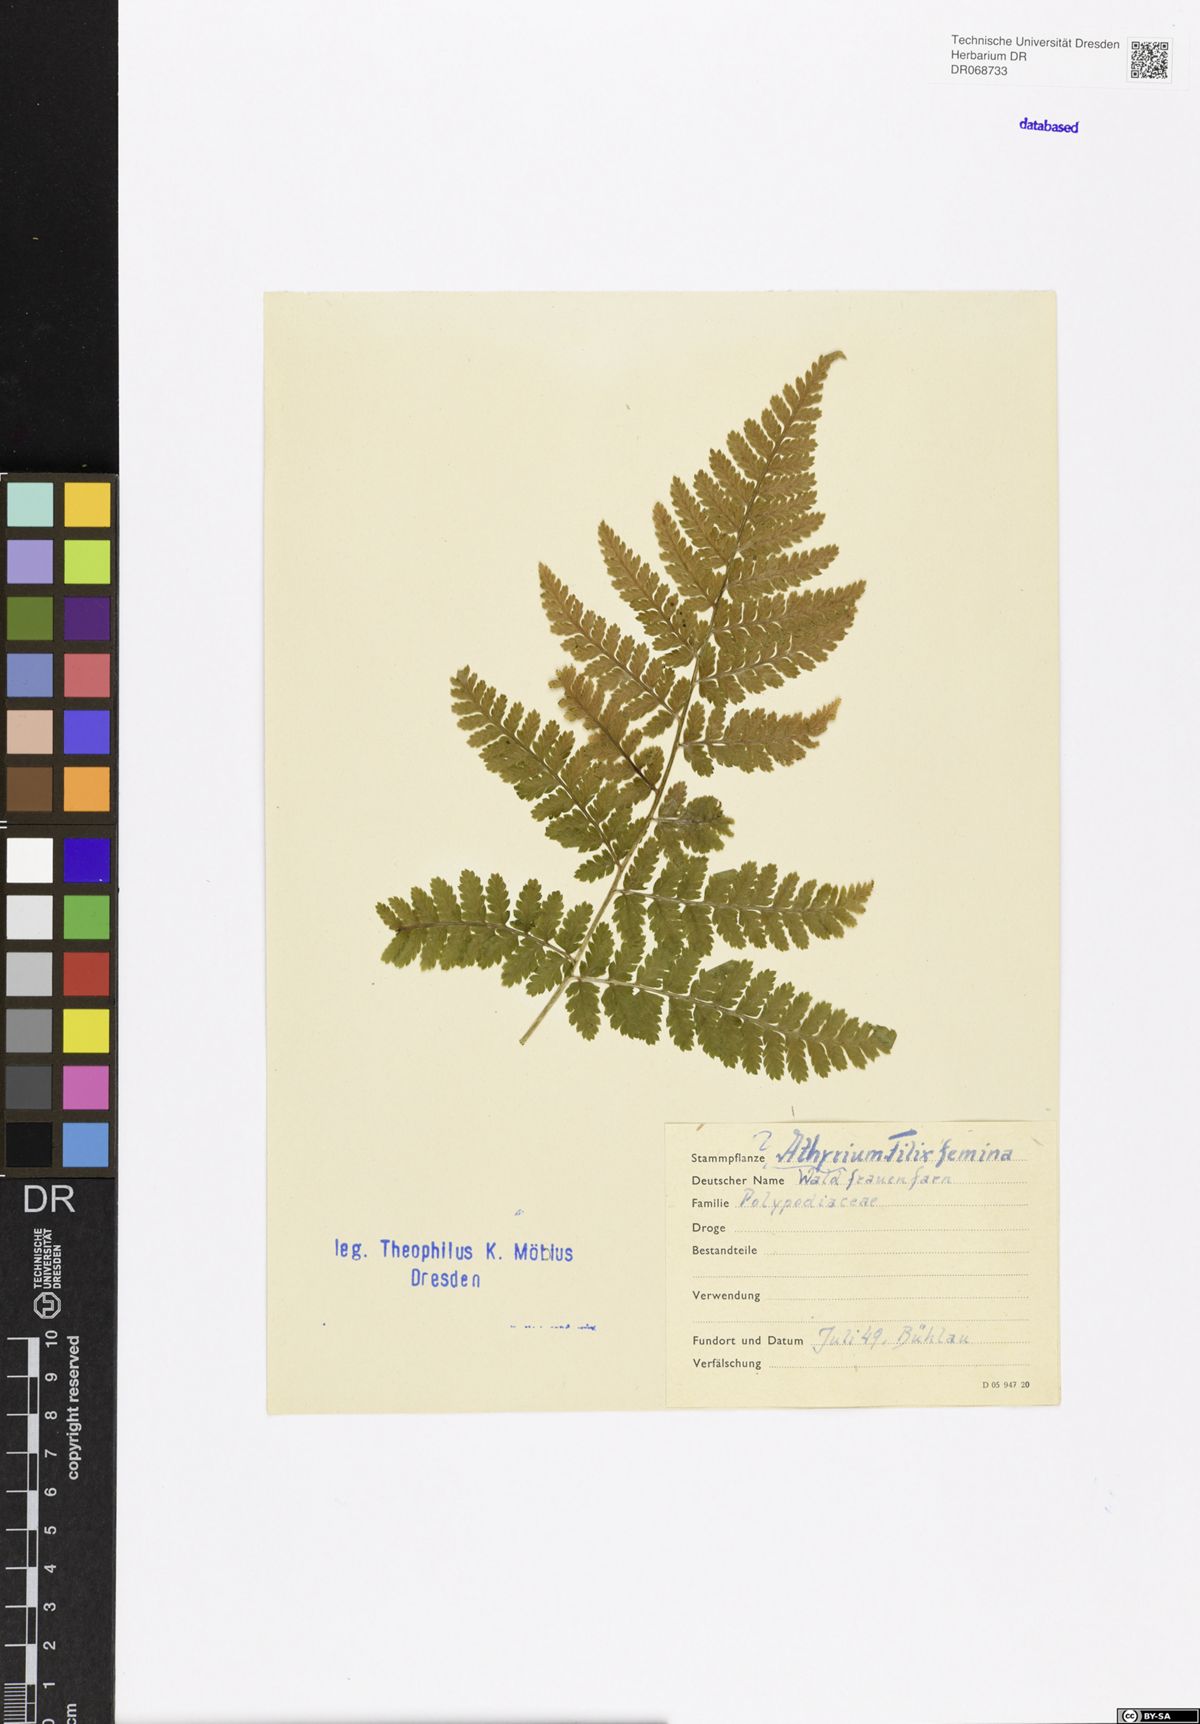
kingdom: Plantae
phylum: Tracheophyta
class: Polypodiopsida
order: Polypodiales
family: Athyriaceae
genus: Athyrium
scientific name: Athyrium filix-femina
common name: Lady fern
